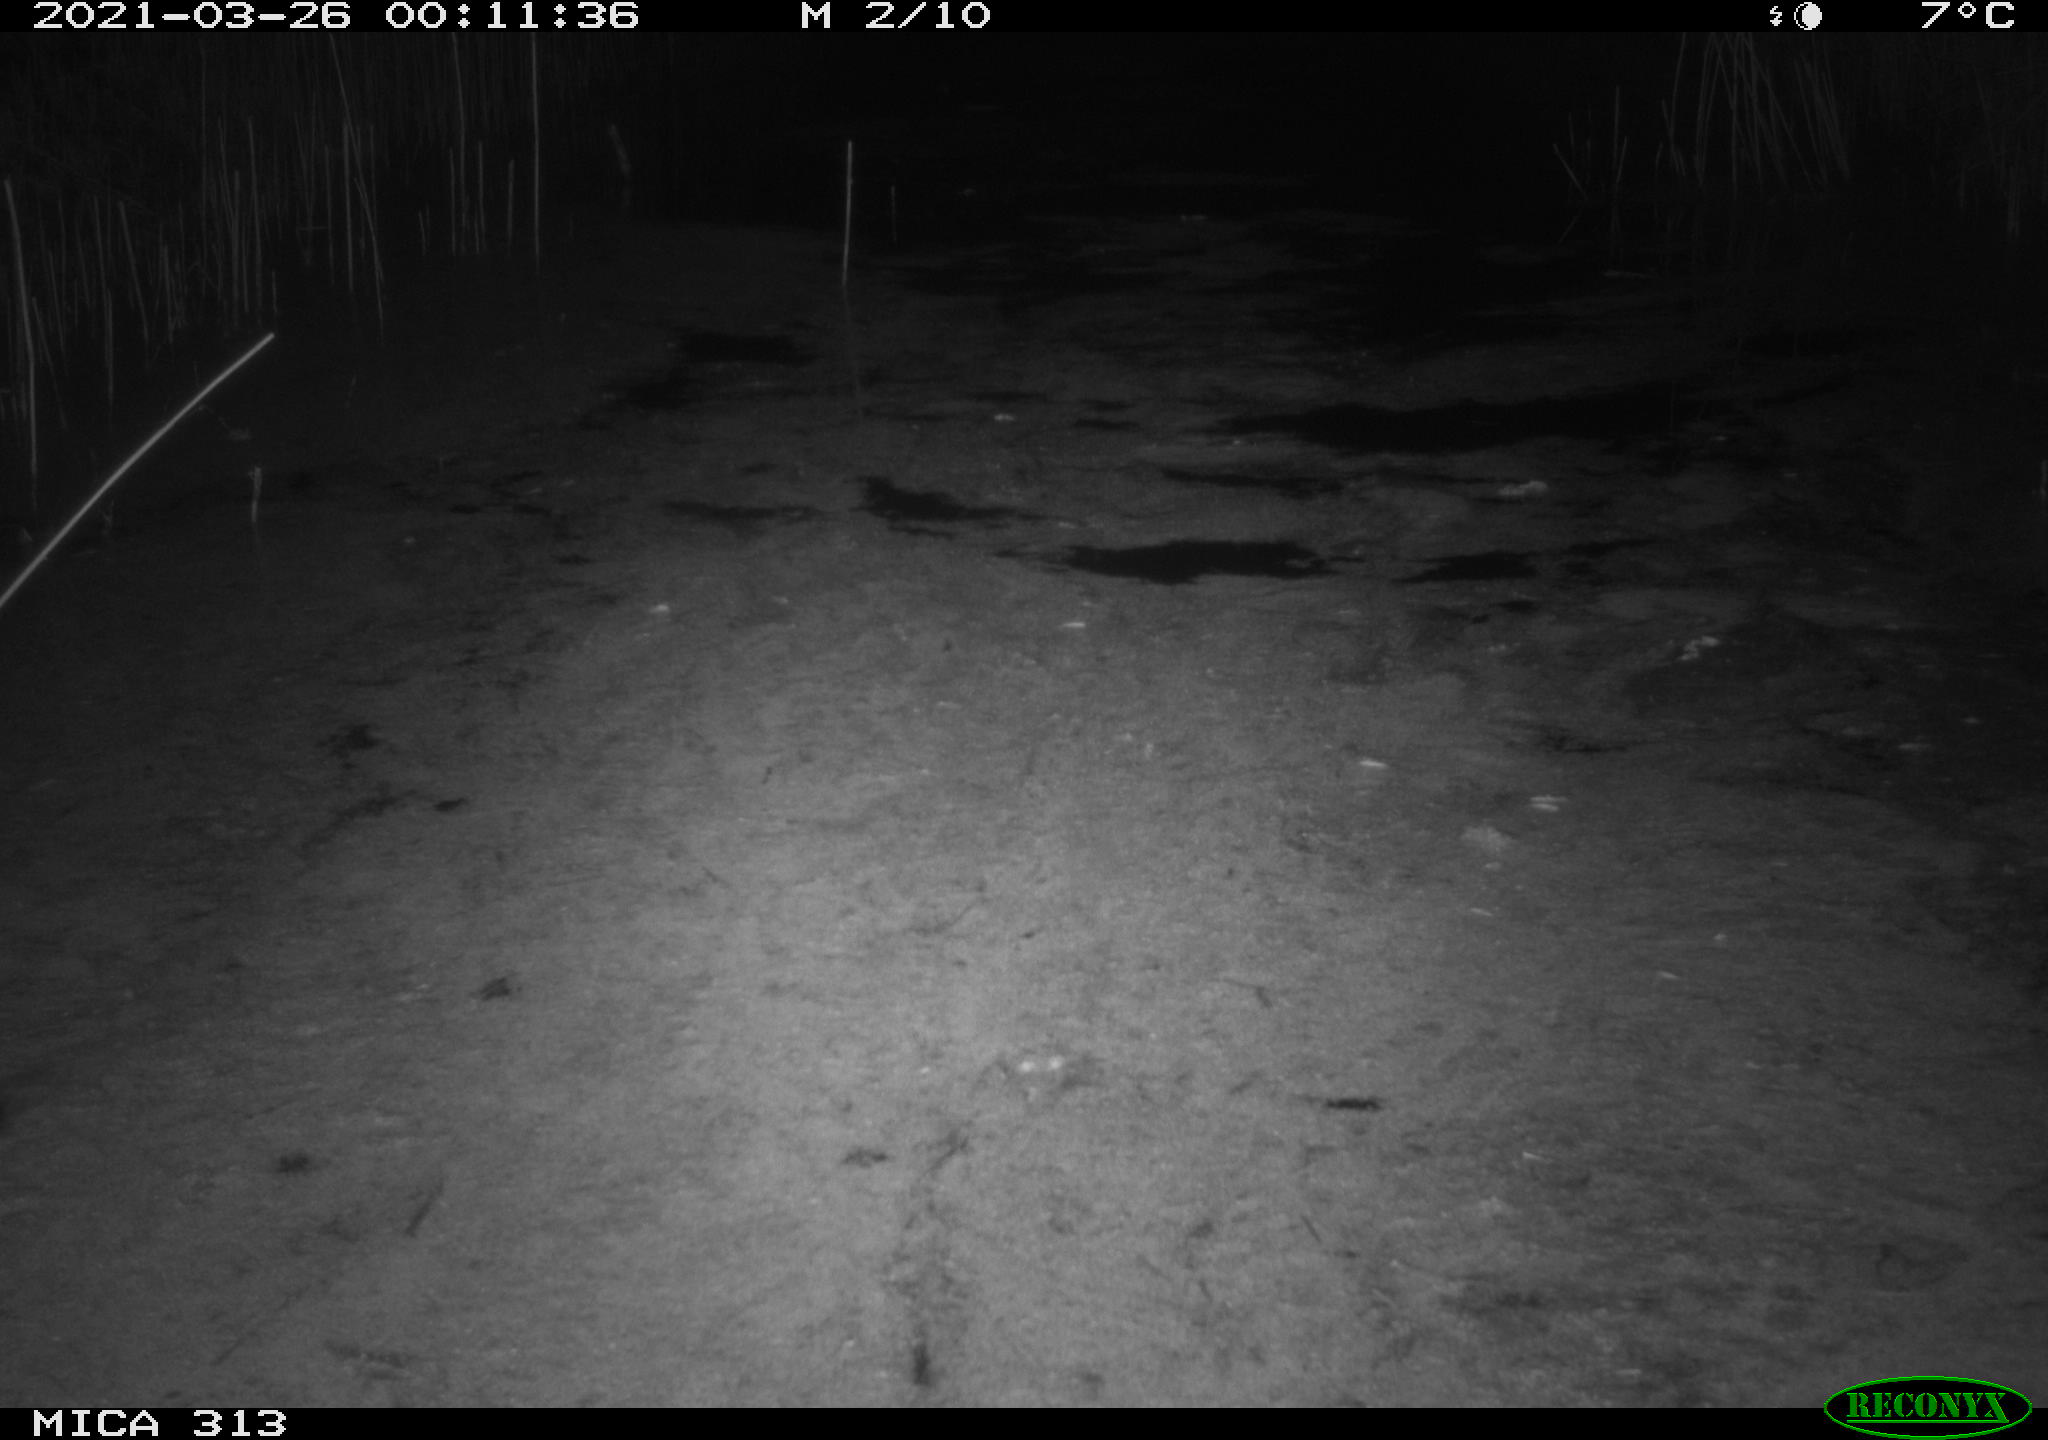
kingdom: Animalia
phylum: Chordata
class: Mammalia
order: Rodentia
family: Muridae
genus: Rattus
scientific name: Rattus norvegicus
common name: Brown rat
